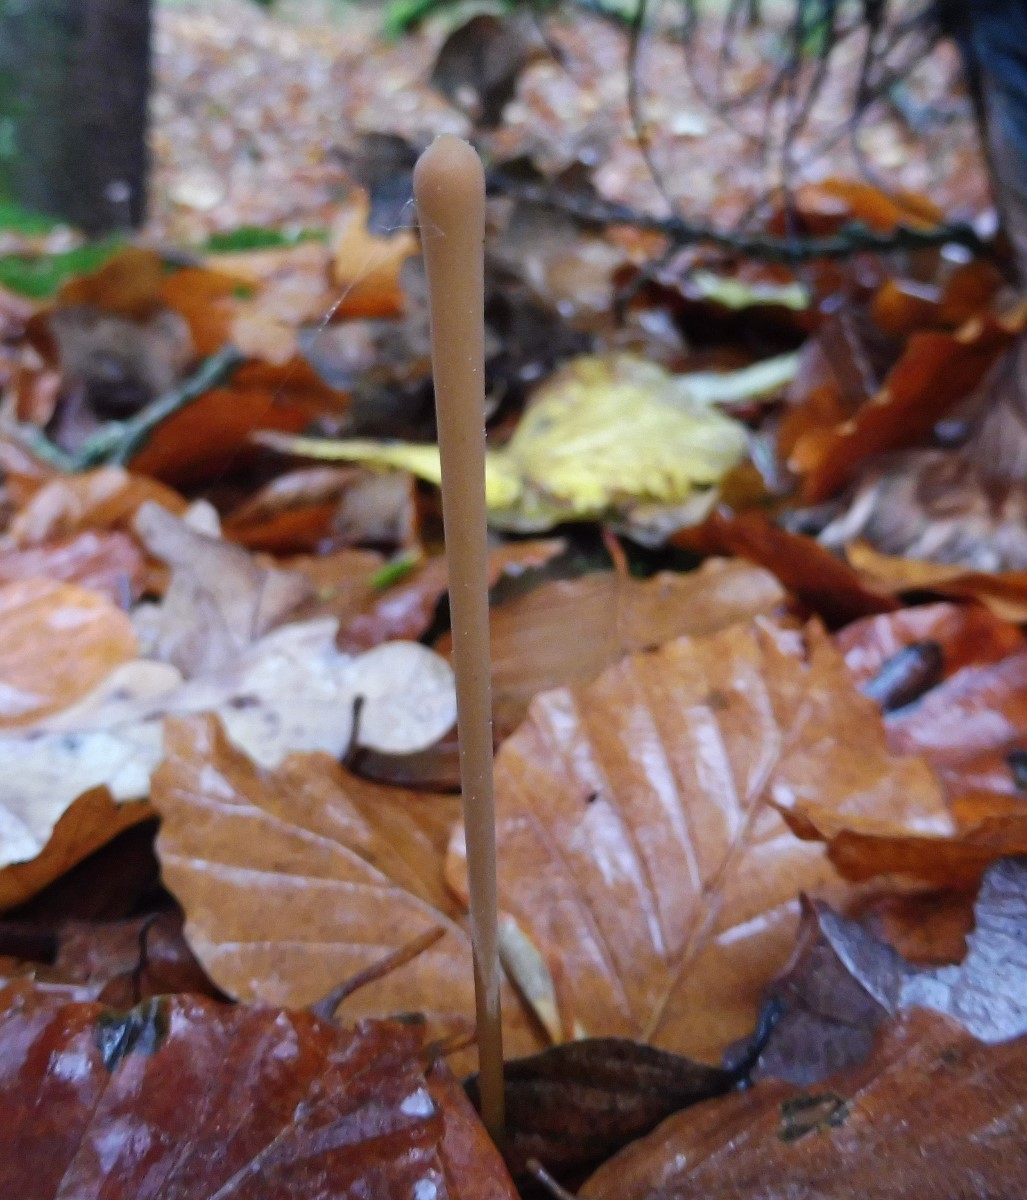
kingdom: Fungi
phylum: Basidiomycota
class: Agaricomycetes
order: Agaricales
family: Typhulaceae
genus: Typhula
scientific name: Typhula fistulosa
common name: pibet rørkølle
